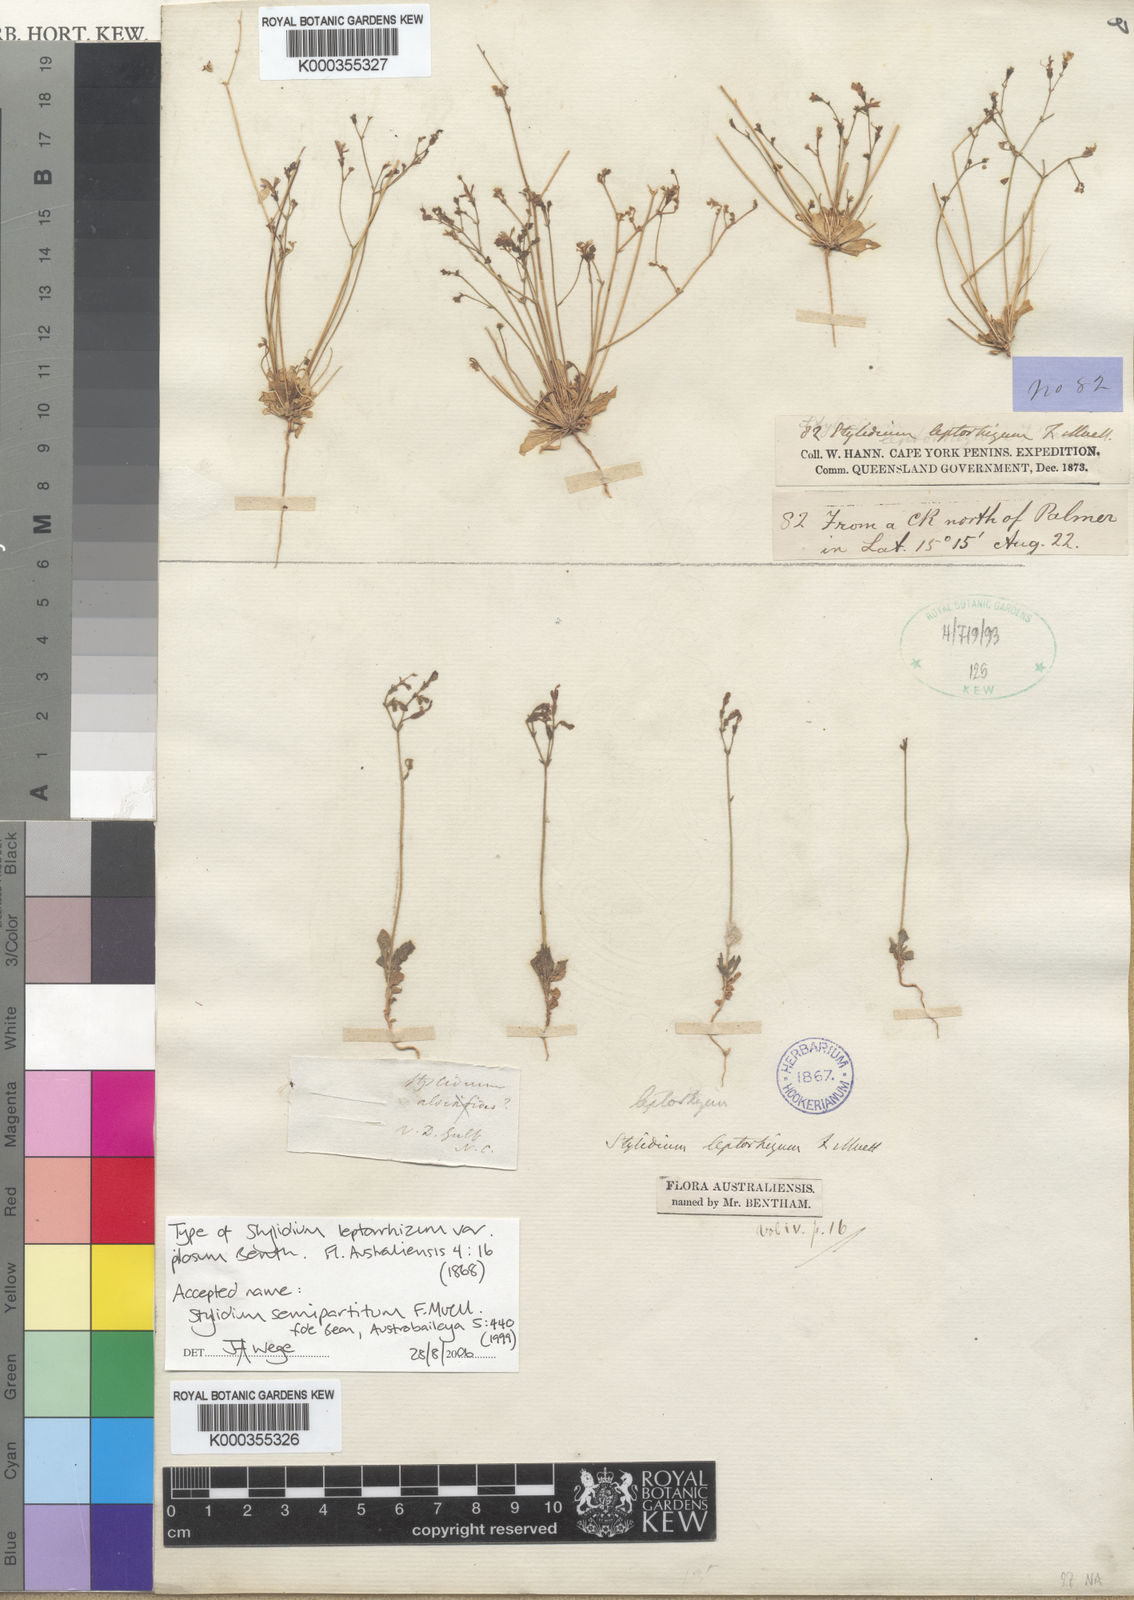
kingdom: Plantae
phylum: Tracheophyta
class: Magnoliopsida
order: Asterales
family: Stylidiaceae
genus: Stylidium
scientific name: Stylidium semipartitum
